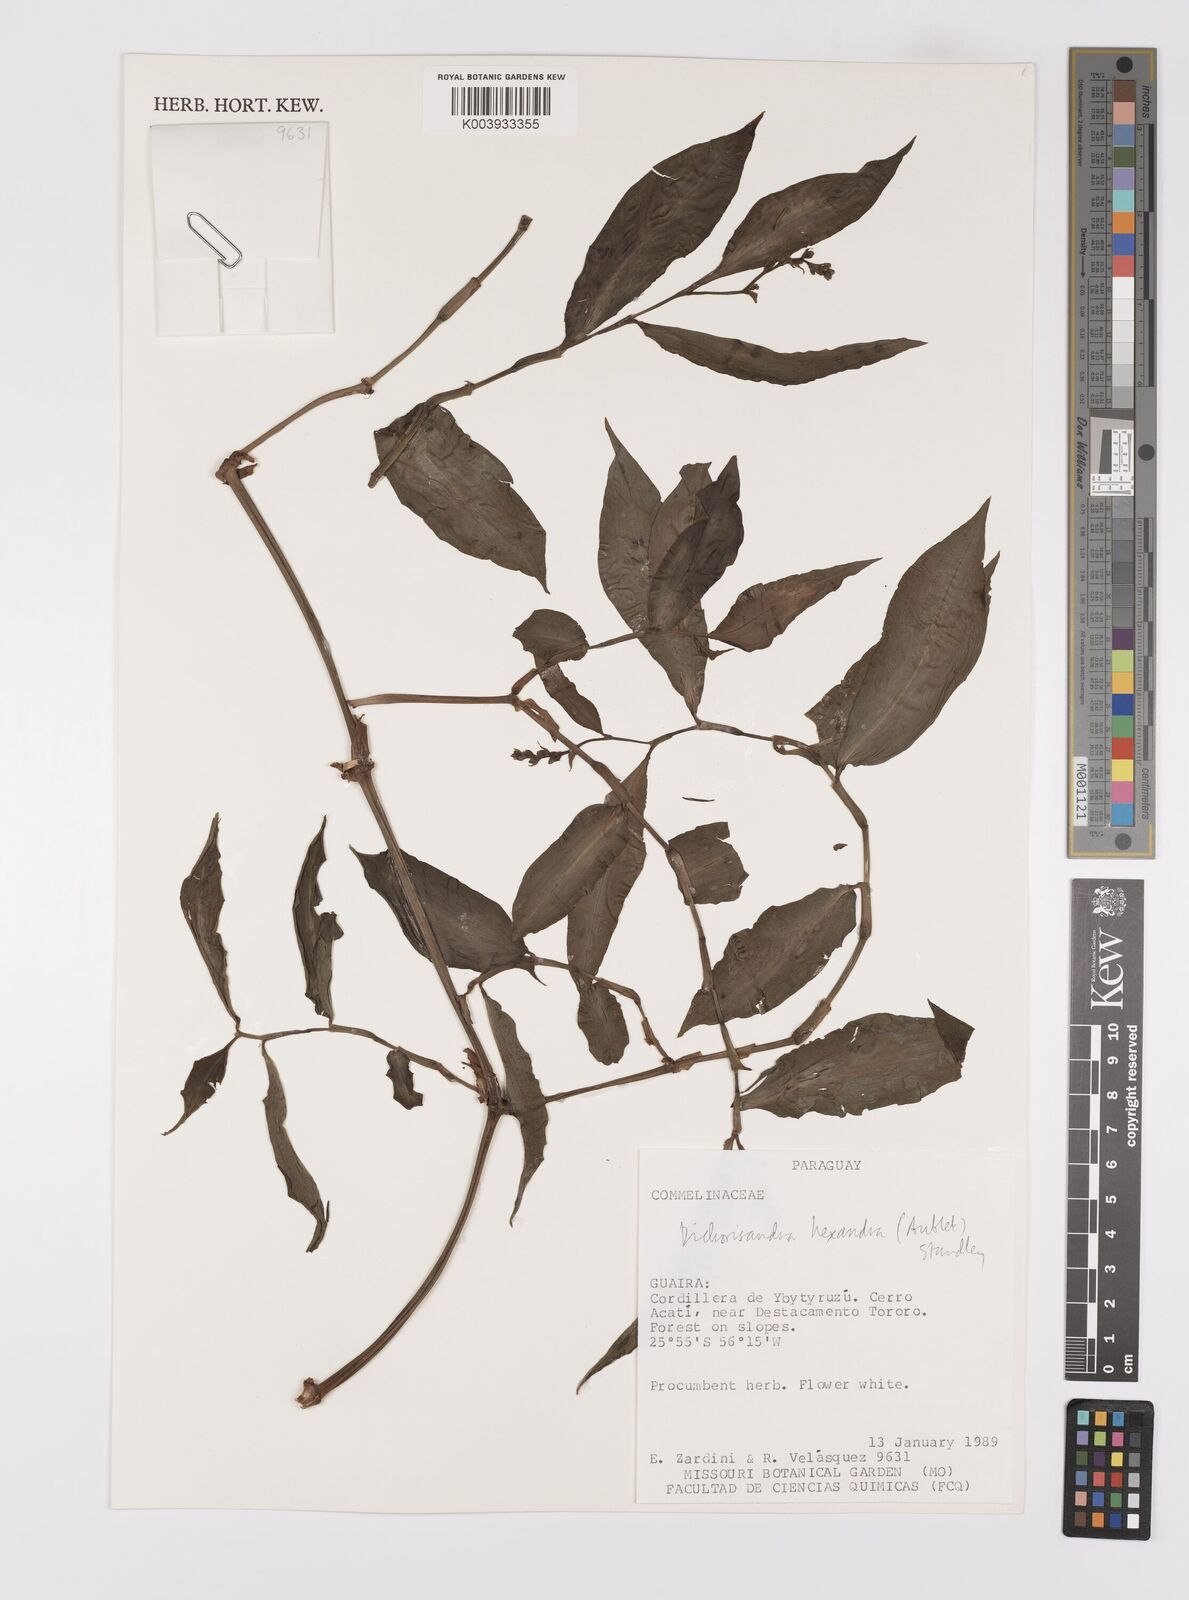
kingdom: Plantae
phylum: Tracheophyta
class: Liliopsida
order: Commelinales
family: Commelinaceae
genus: Dichorisandra
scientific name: Dichorisandra hexandra
